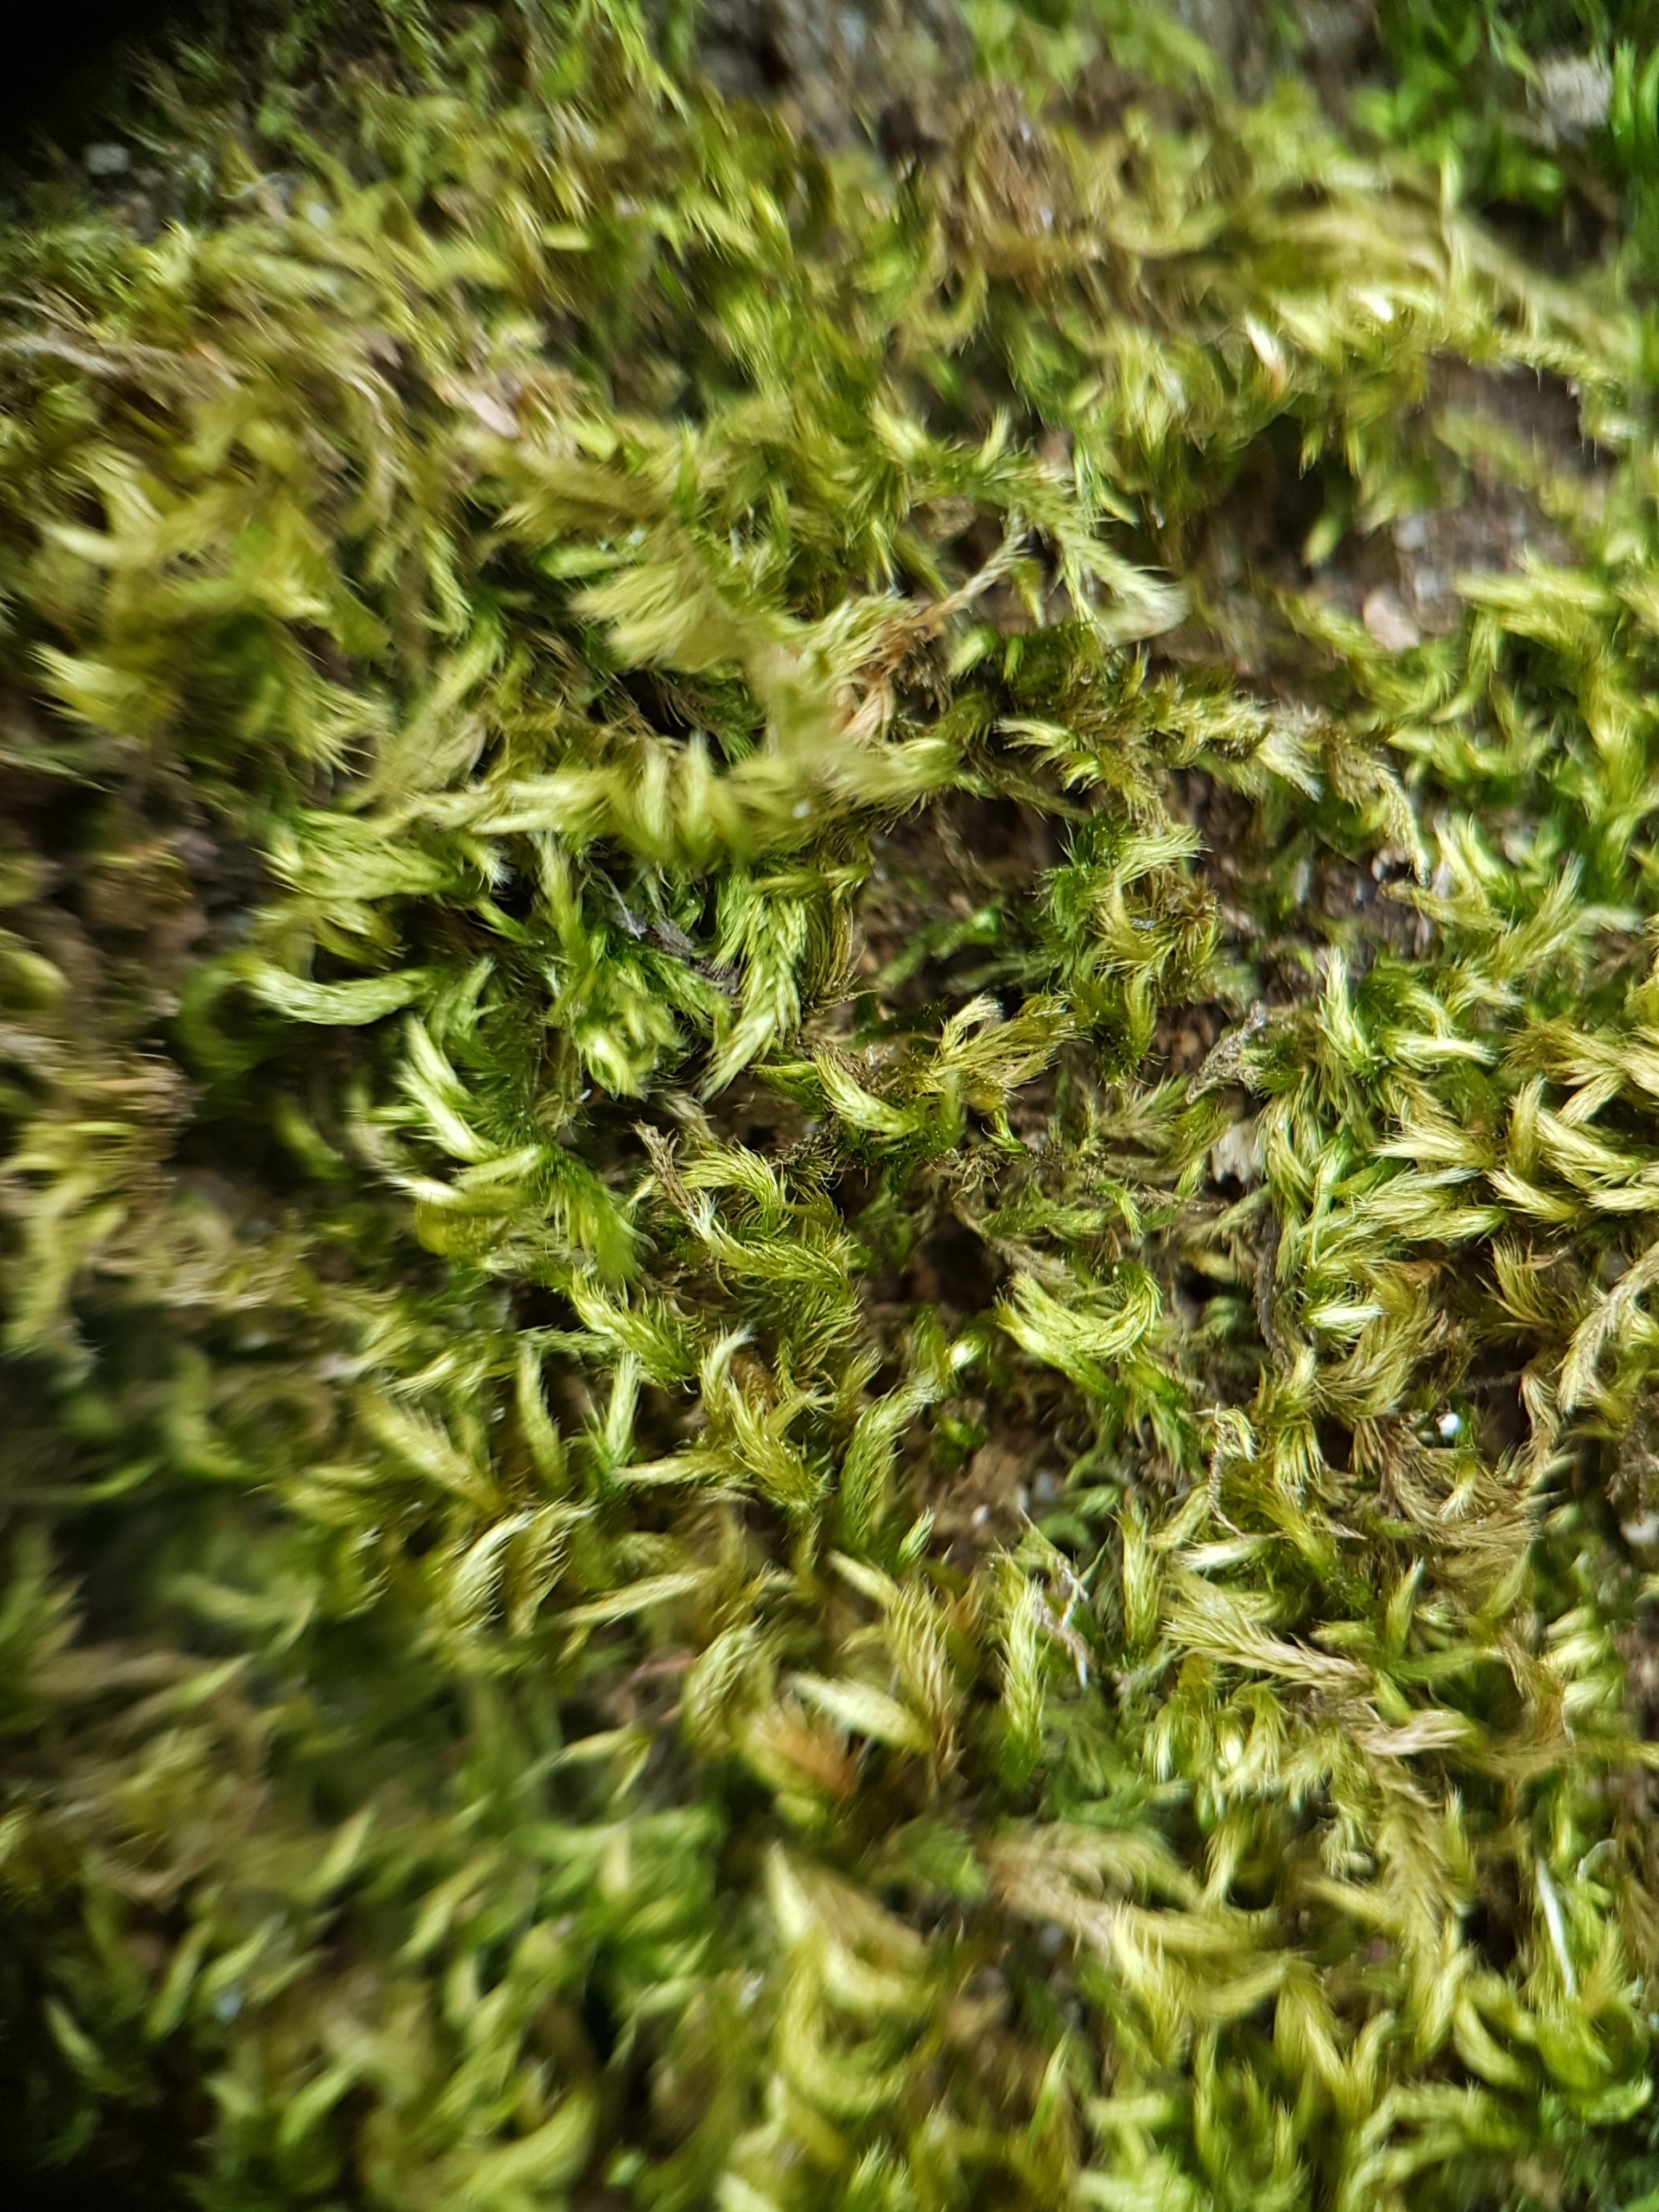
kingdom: Plantae
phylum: Bryophyta
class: Bryopsida
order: Hypnales
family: Brachytheciaceae
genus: Homalothecium
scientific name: Homalothecium sericeum
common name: Krybende silkemos
